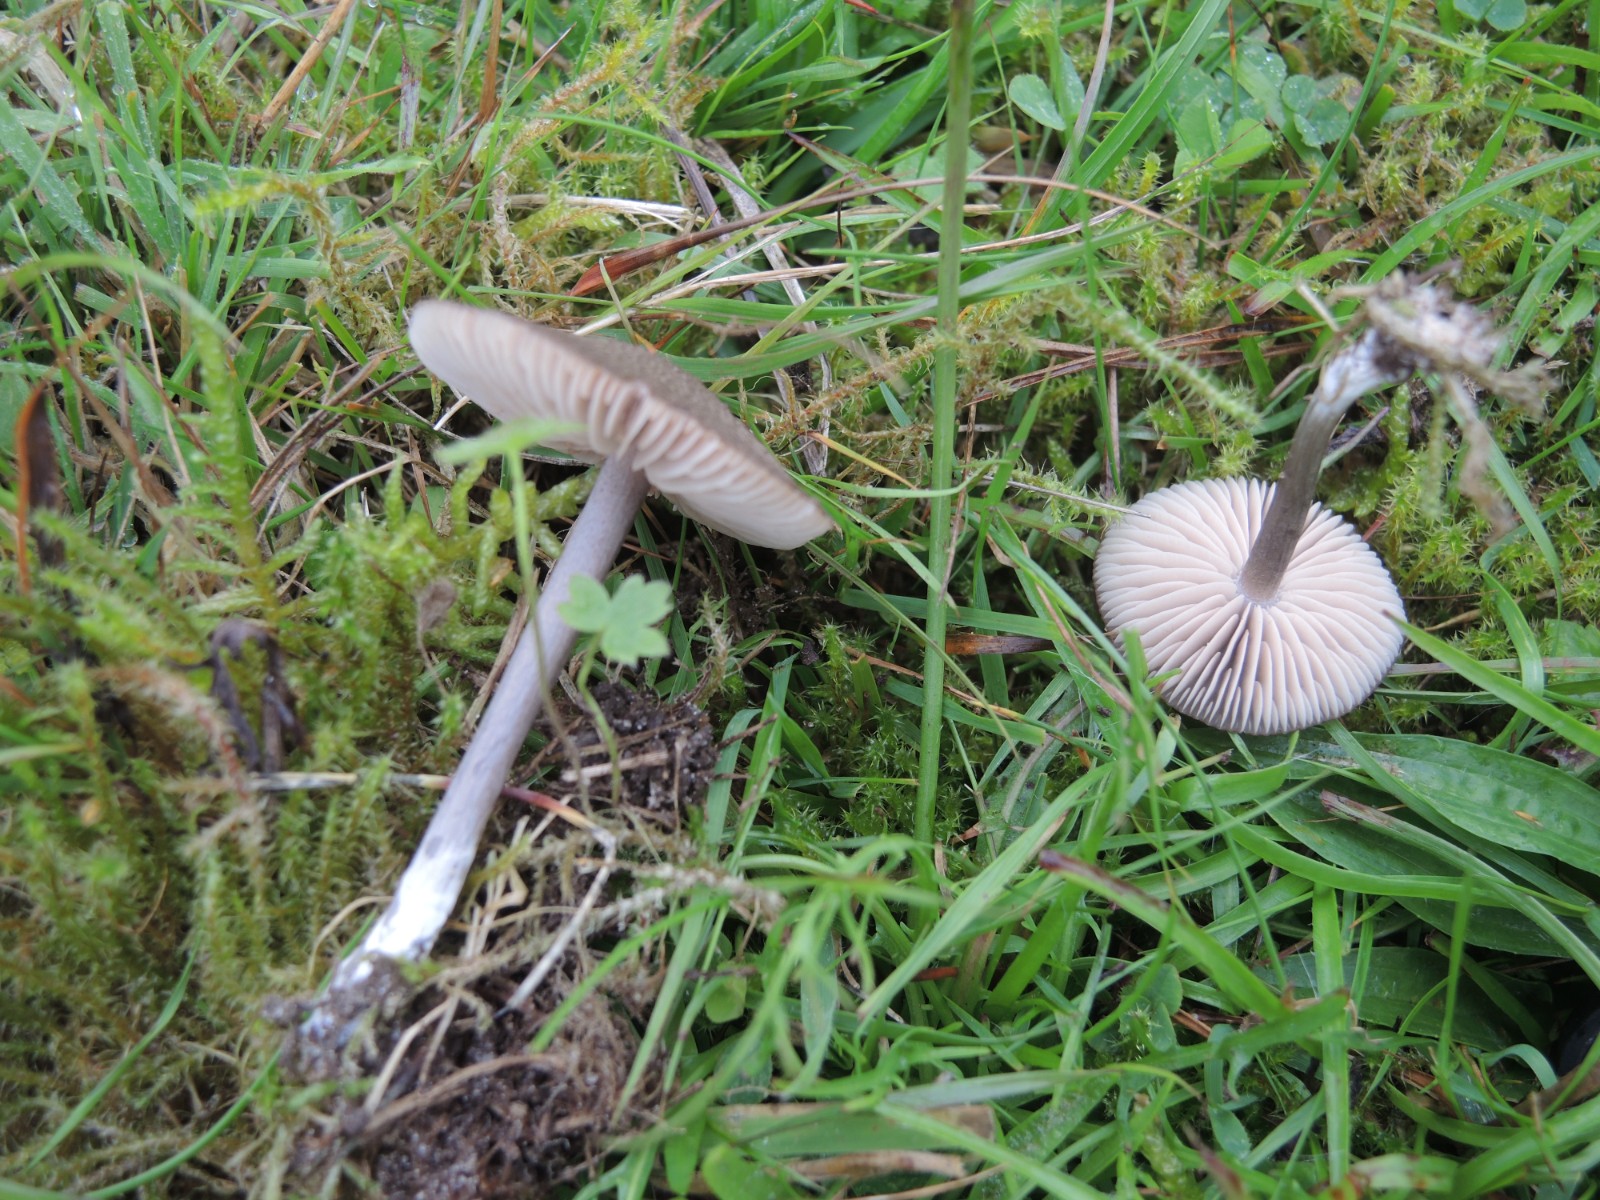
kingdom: Fungi
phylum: Basidiomycota
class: Agaricomycetes
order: Agaricales
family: Entolomataceae
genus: Entoloma
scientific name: Entoloma griseocyaneum
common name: gråblå rødblad
